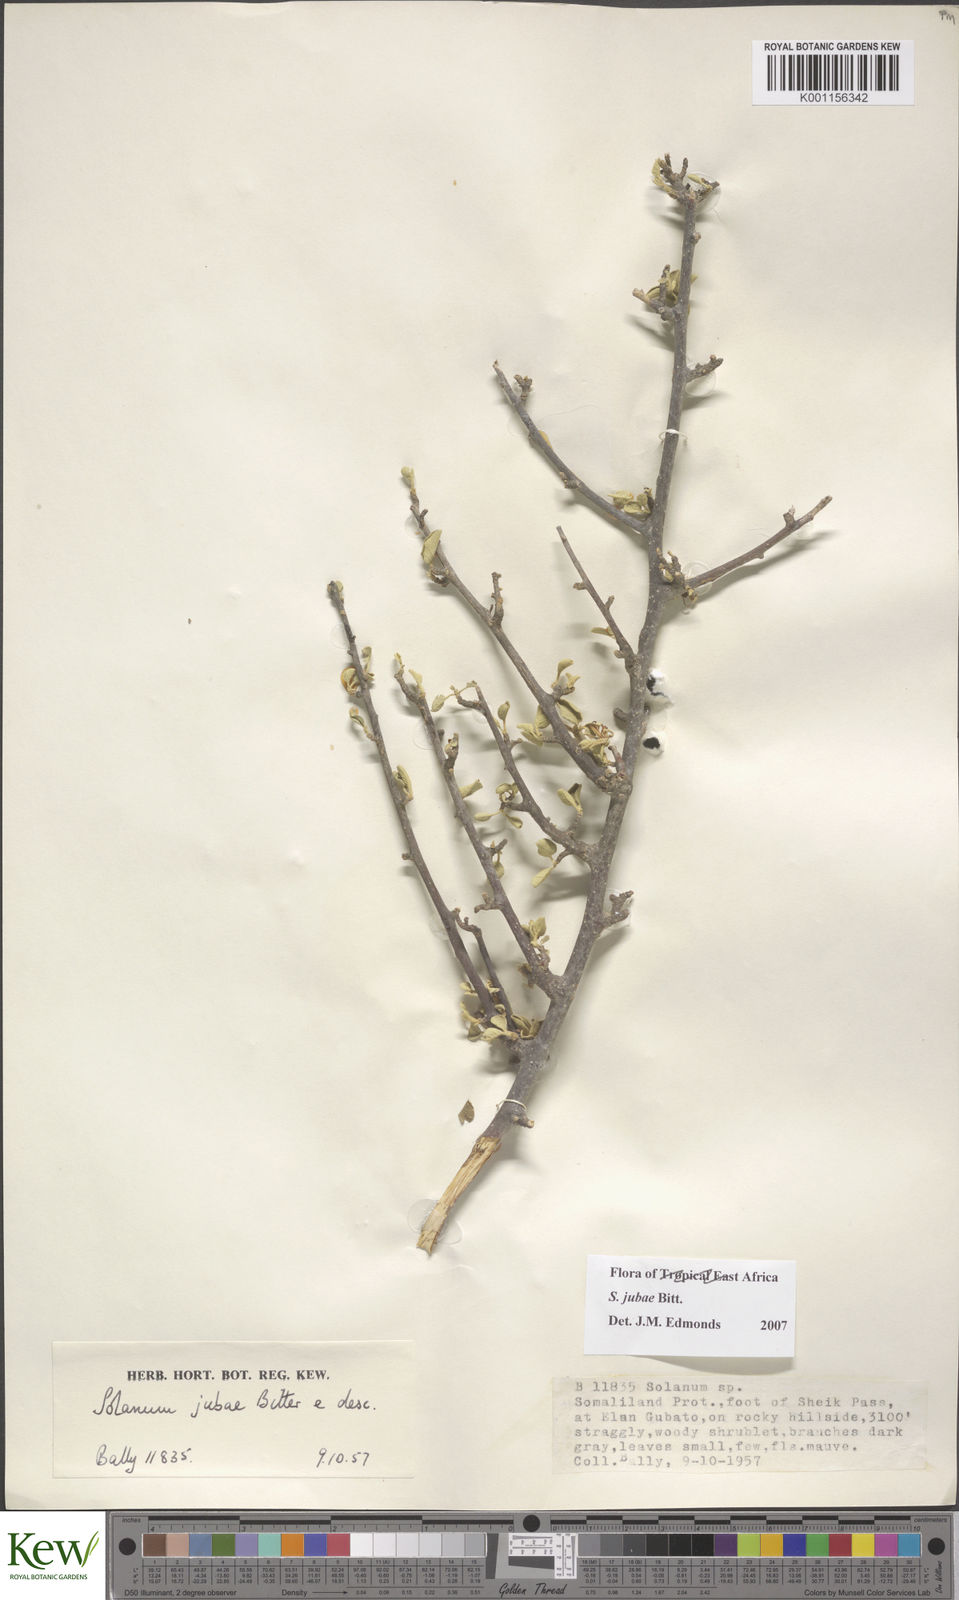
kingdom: Plantae
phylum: Tracheophyta
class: Magnoliopsida
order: Solanales
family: Solanaceae
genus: Solanum
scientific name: Solanum jubae
